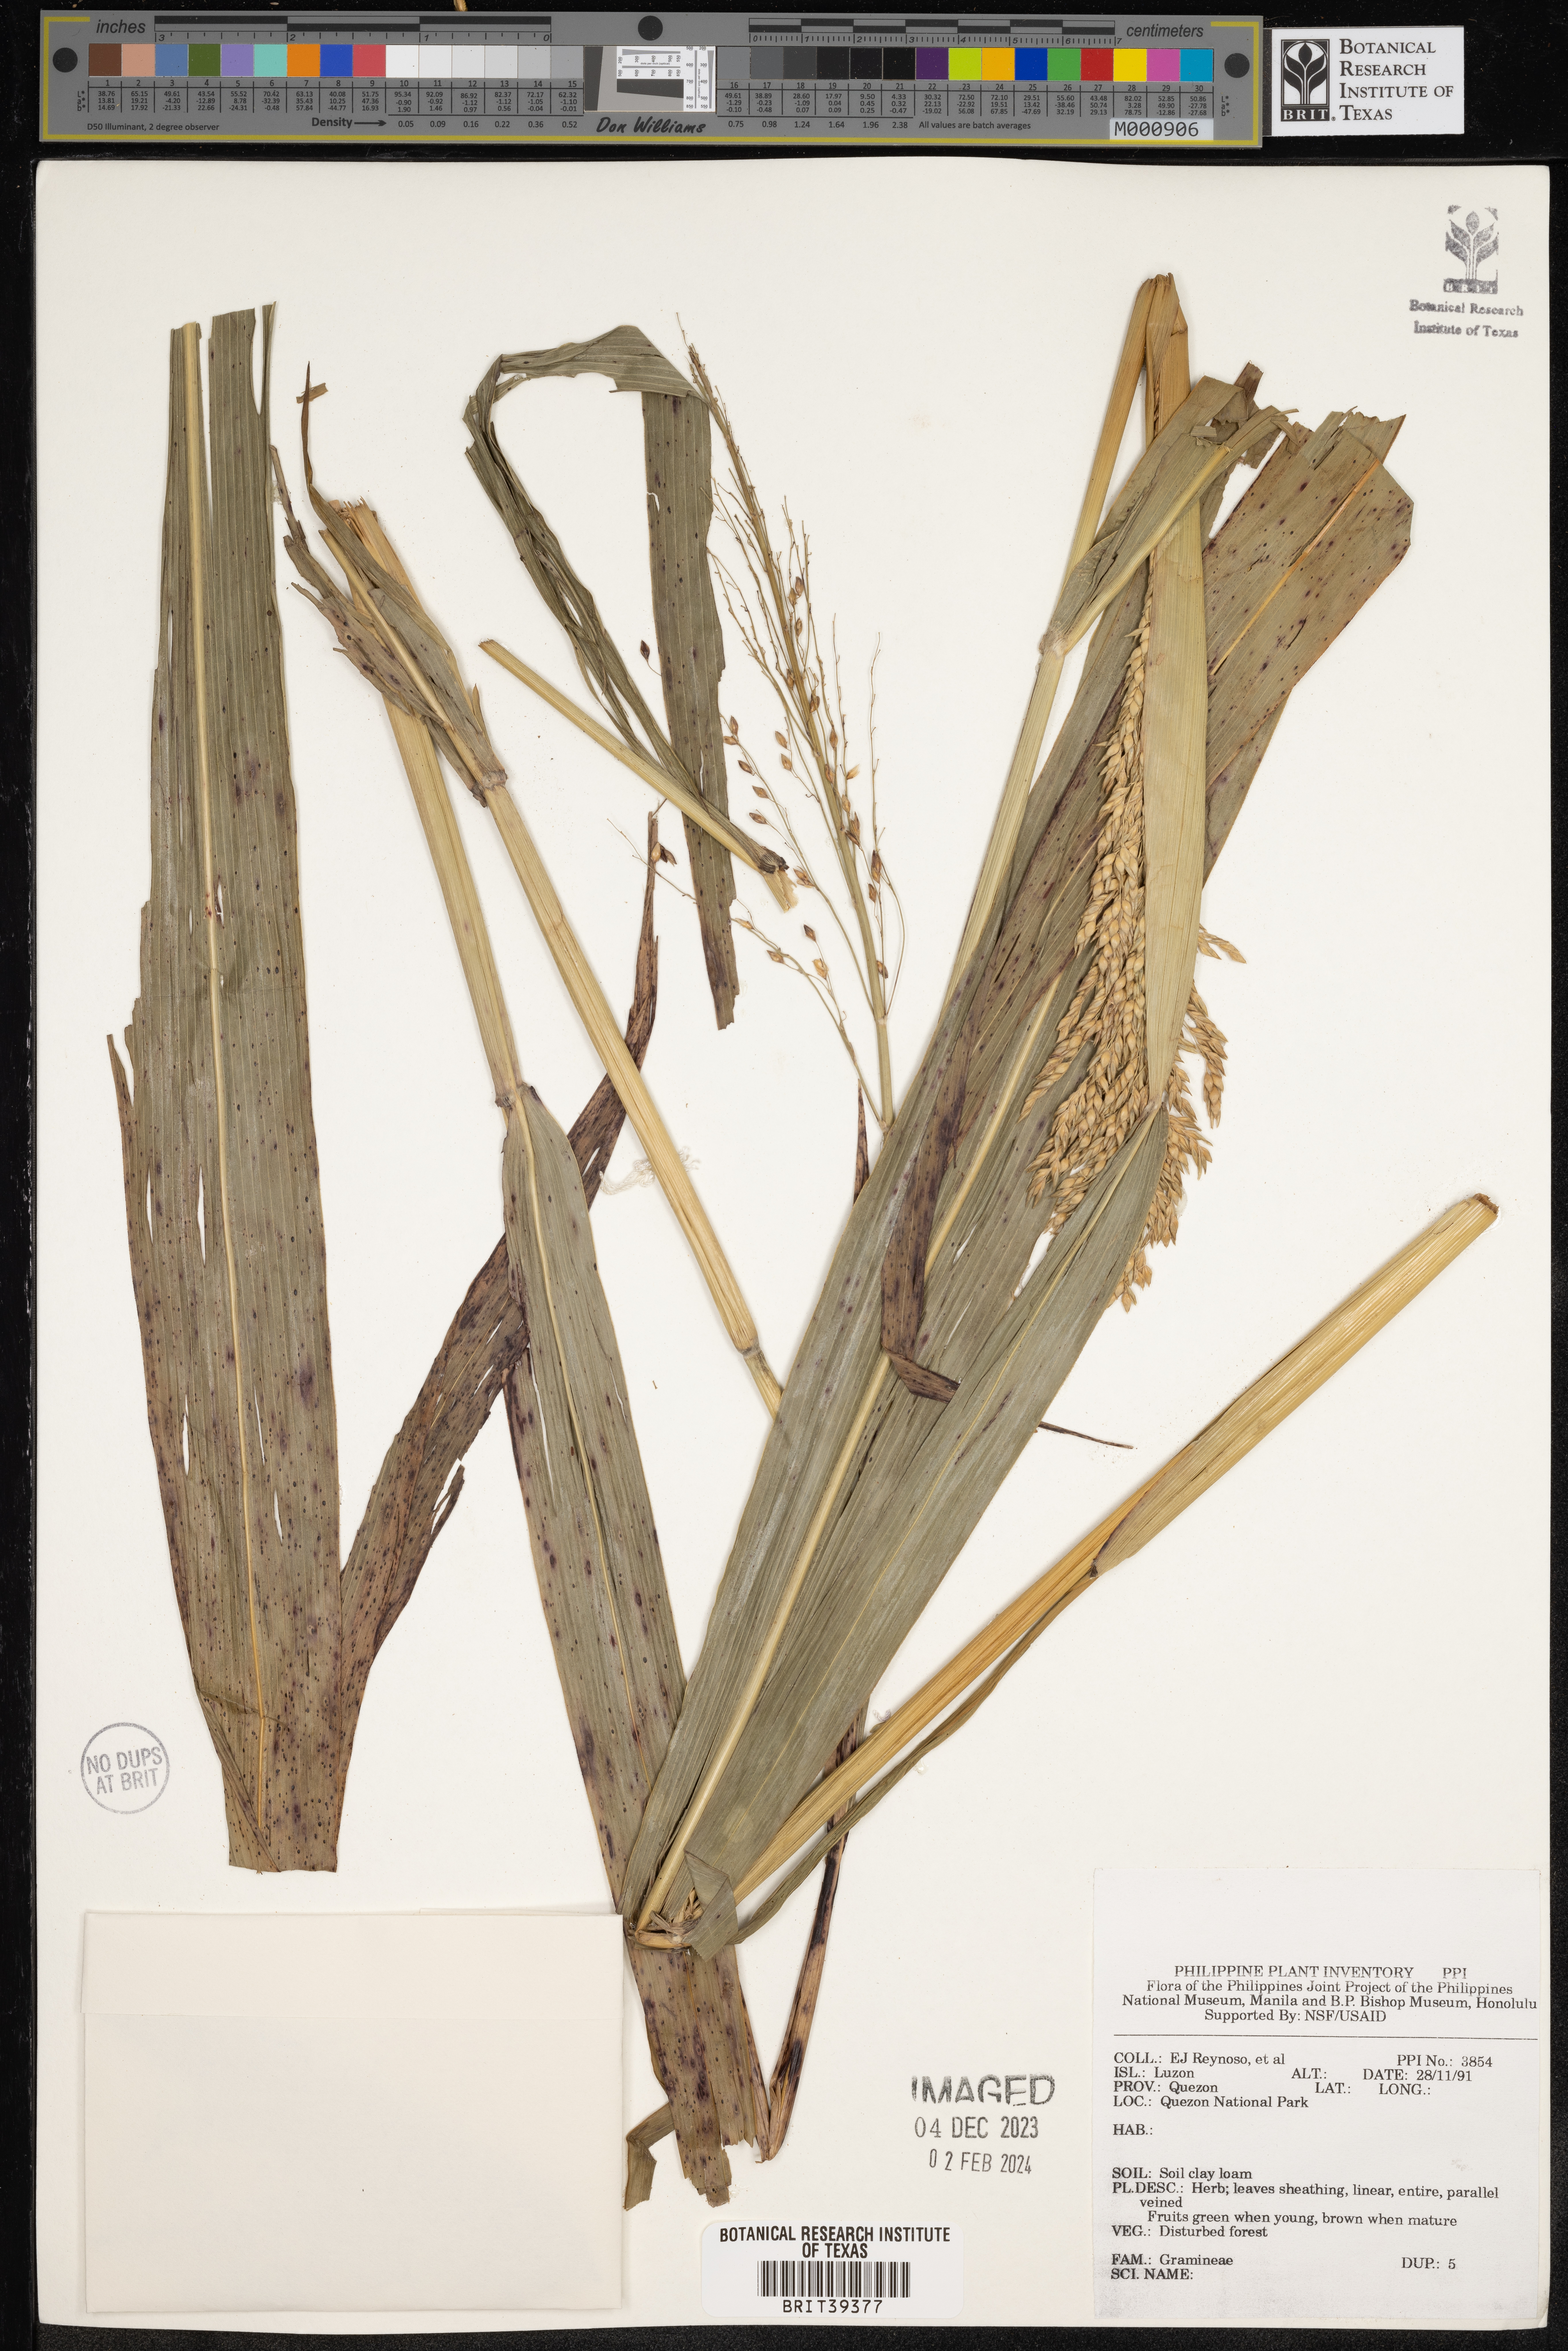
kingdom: Plantae
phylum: Tracheophyta
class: Liliopsida
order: Poales
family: Poaceae
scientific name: Poaceae
